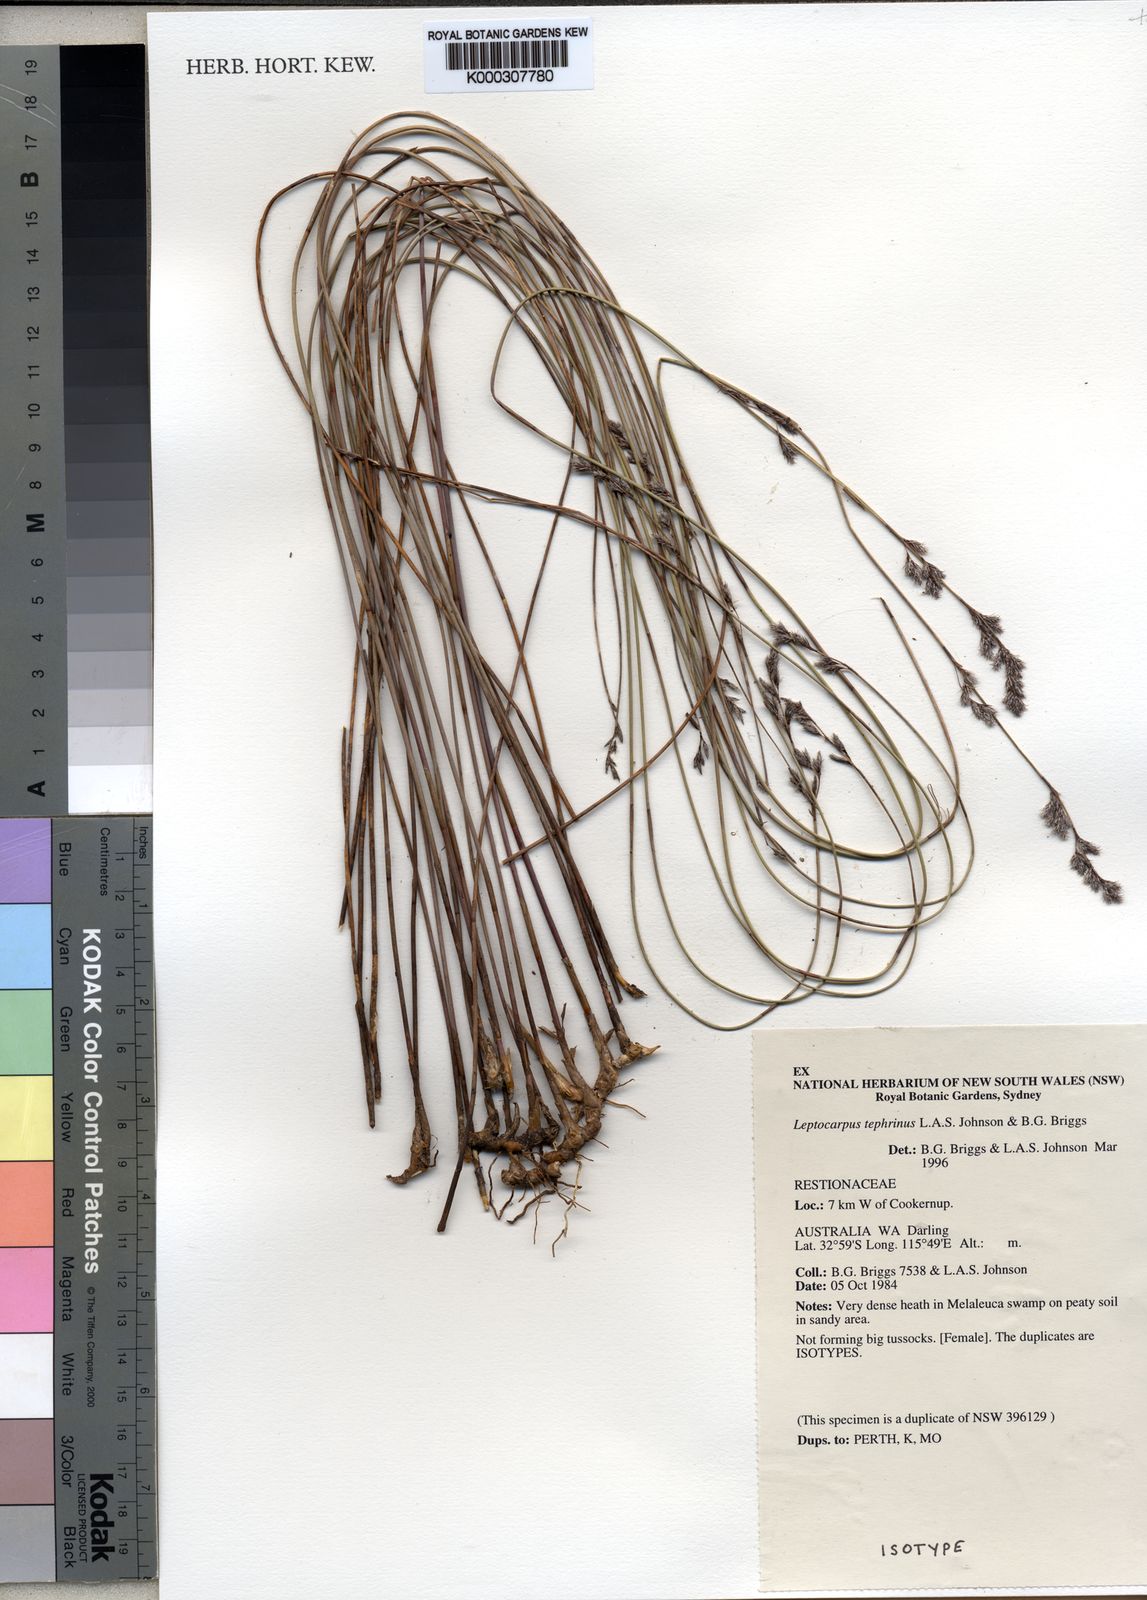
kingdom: Plantae
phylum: Tracheophyta
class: Liliopsida
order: Poales
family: Restionaceae
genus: Leptocarpus
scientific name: Leptocarpus
